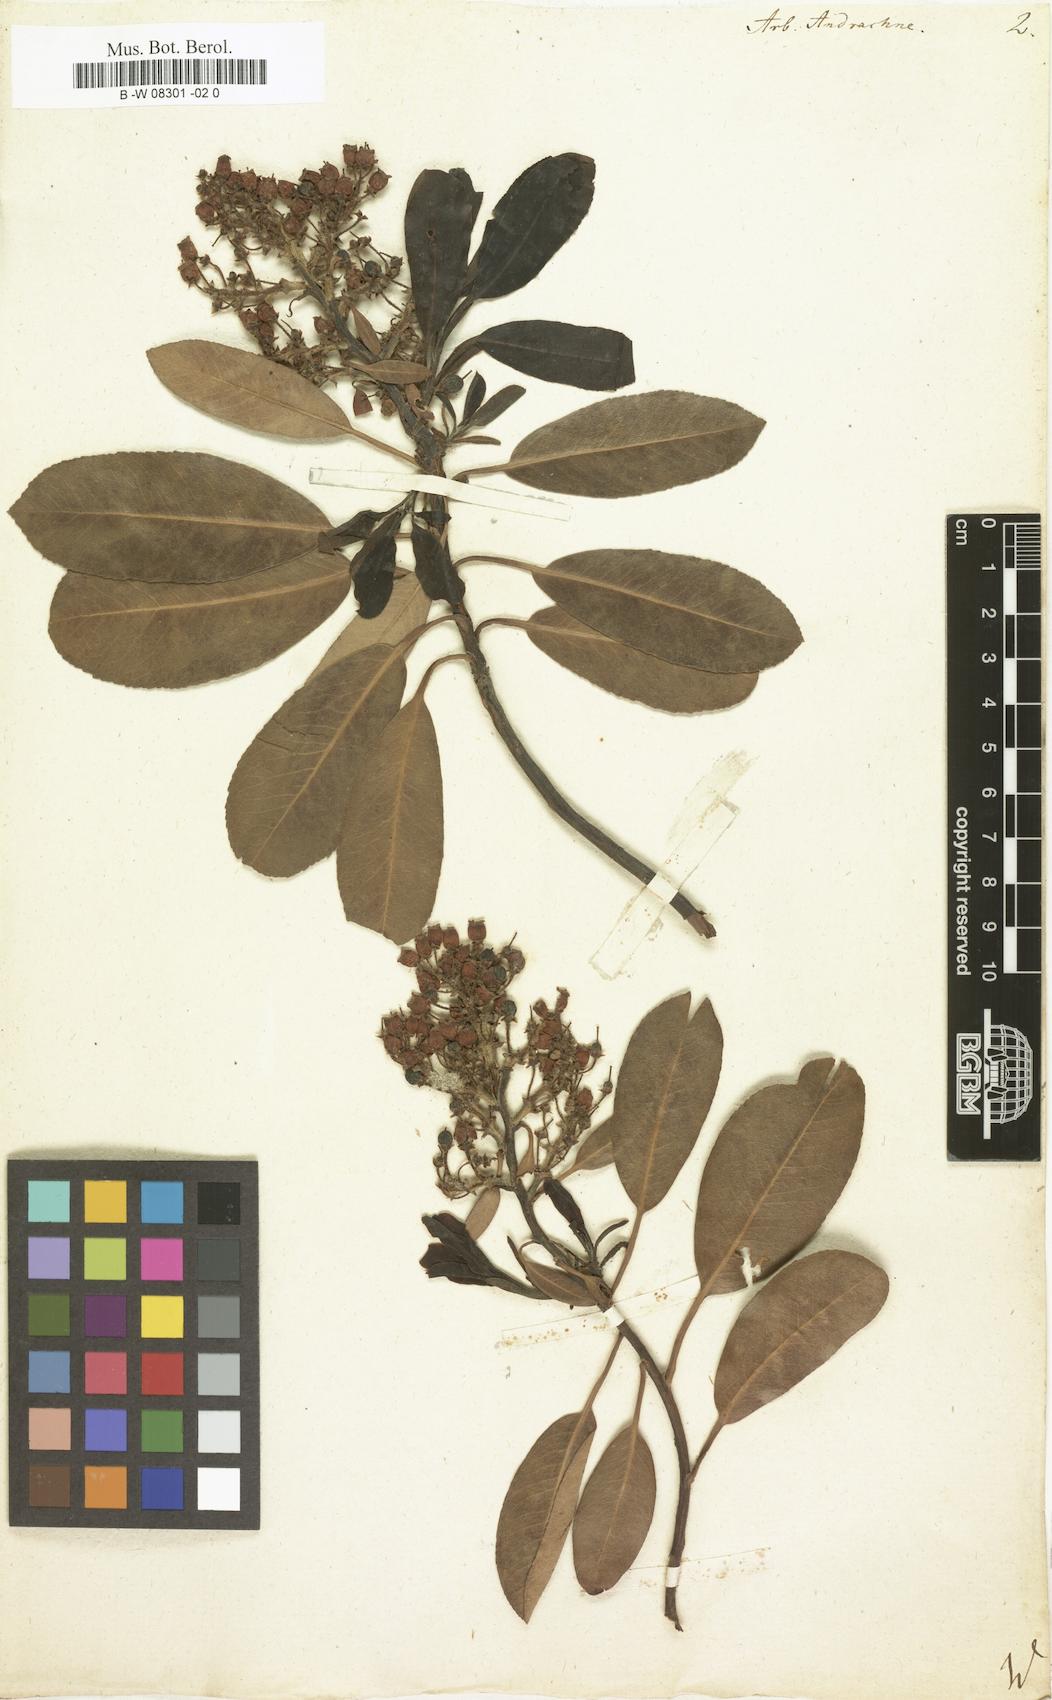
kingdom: Plantae
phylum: Tracheophyta
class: Magnoliopsida
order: Ericales
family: Ericaceae
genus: Arbutus
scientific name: Arbutus andrachne
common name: Greek strawberry tree
